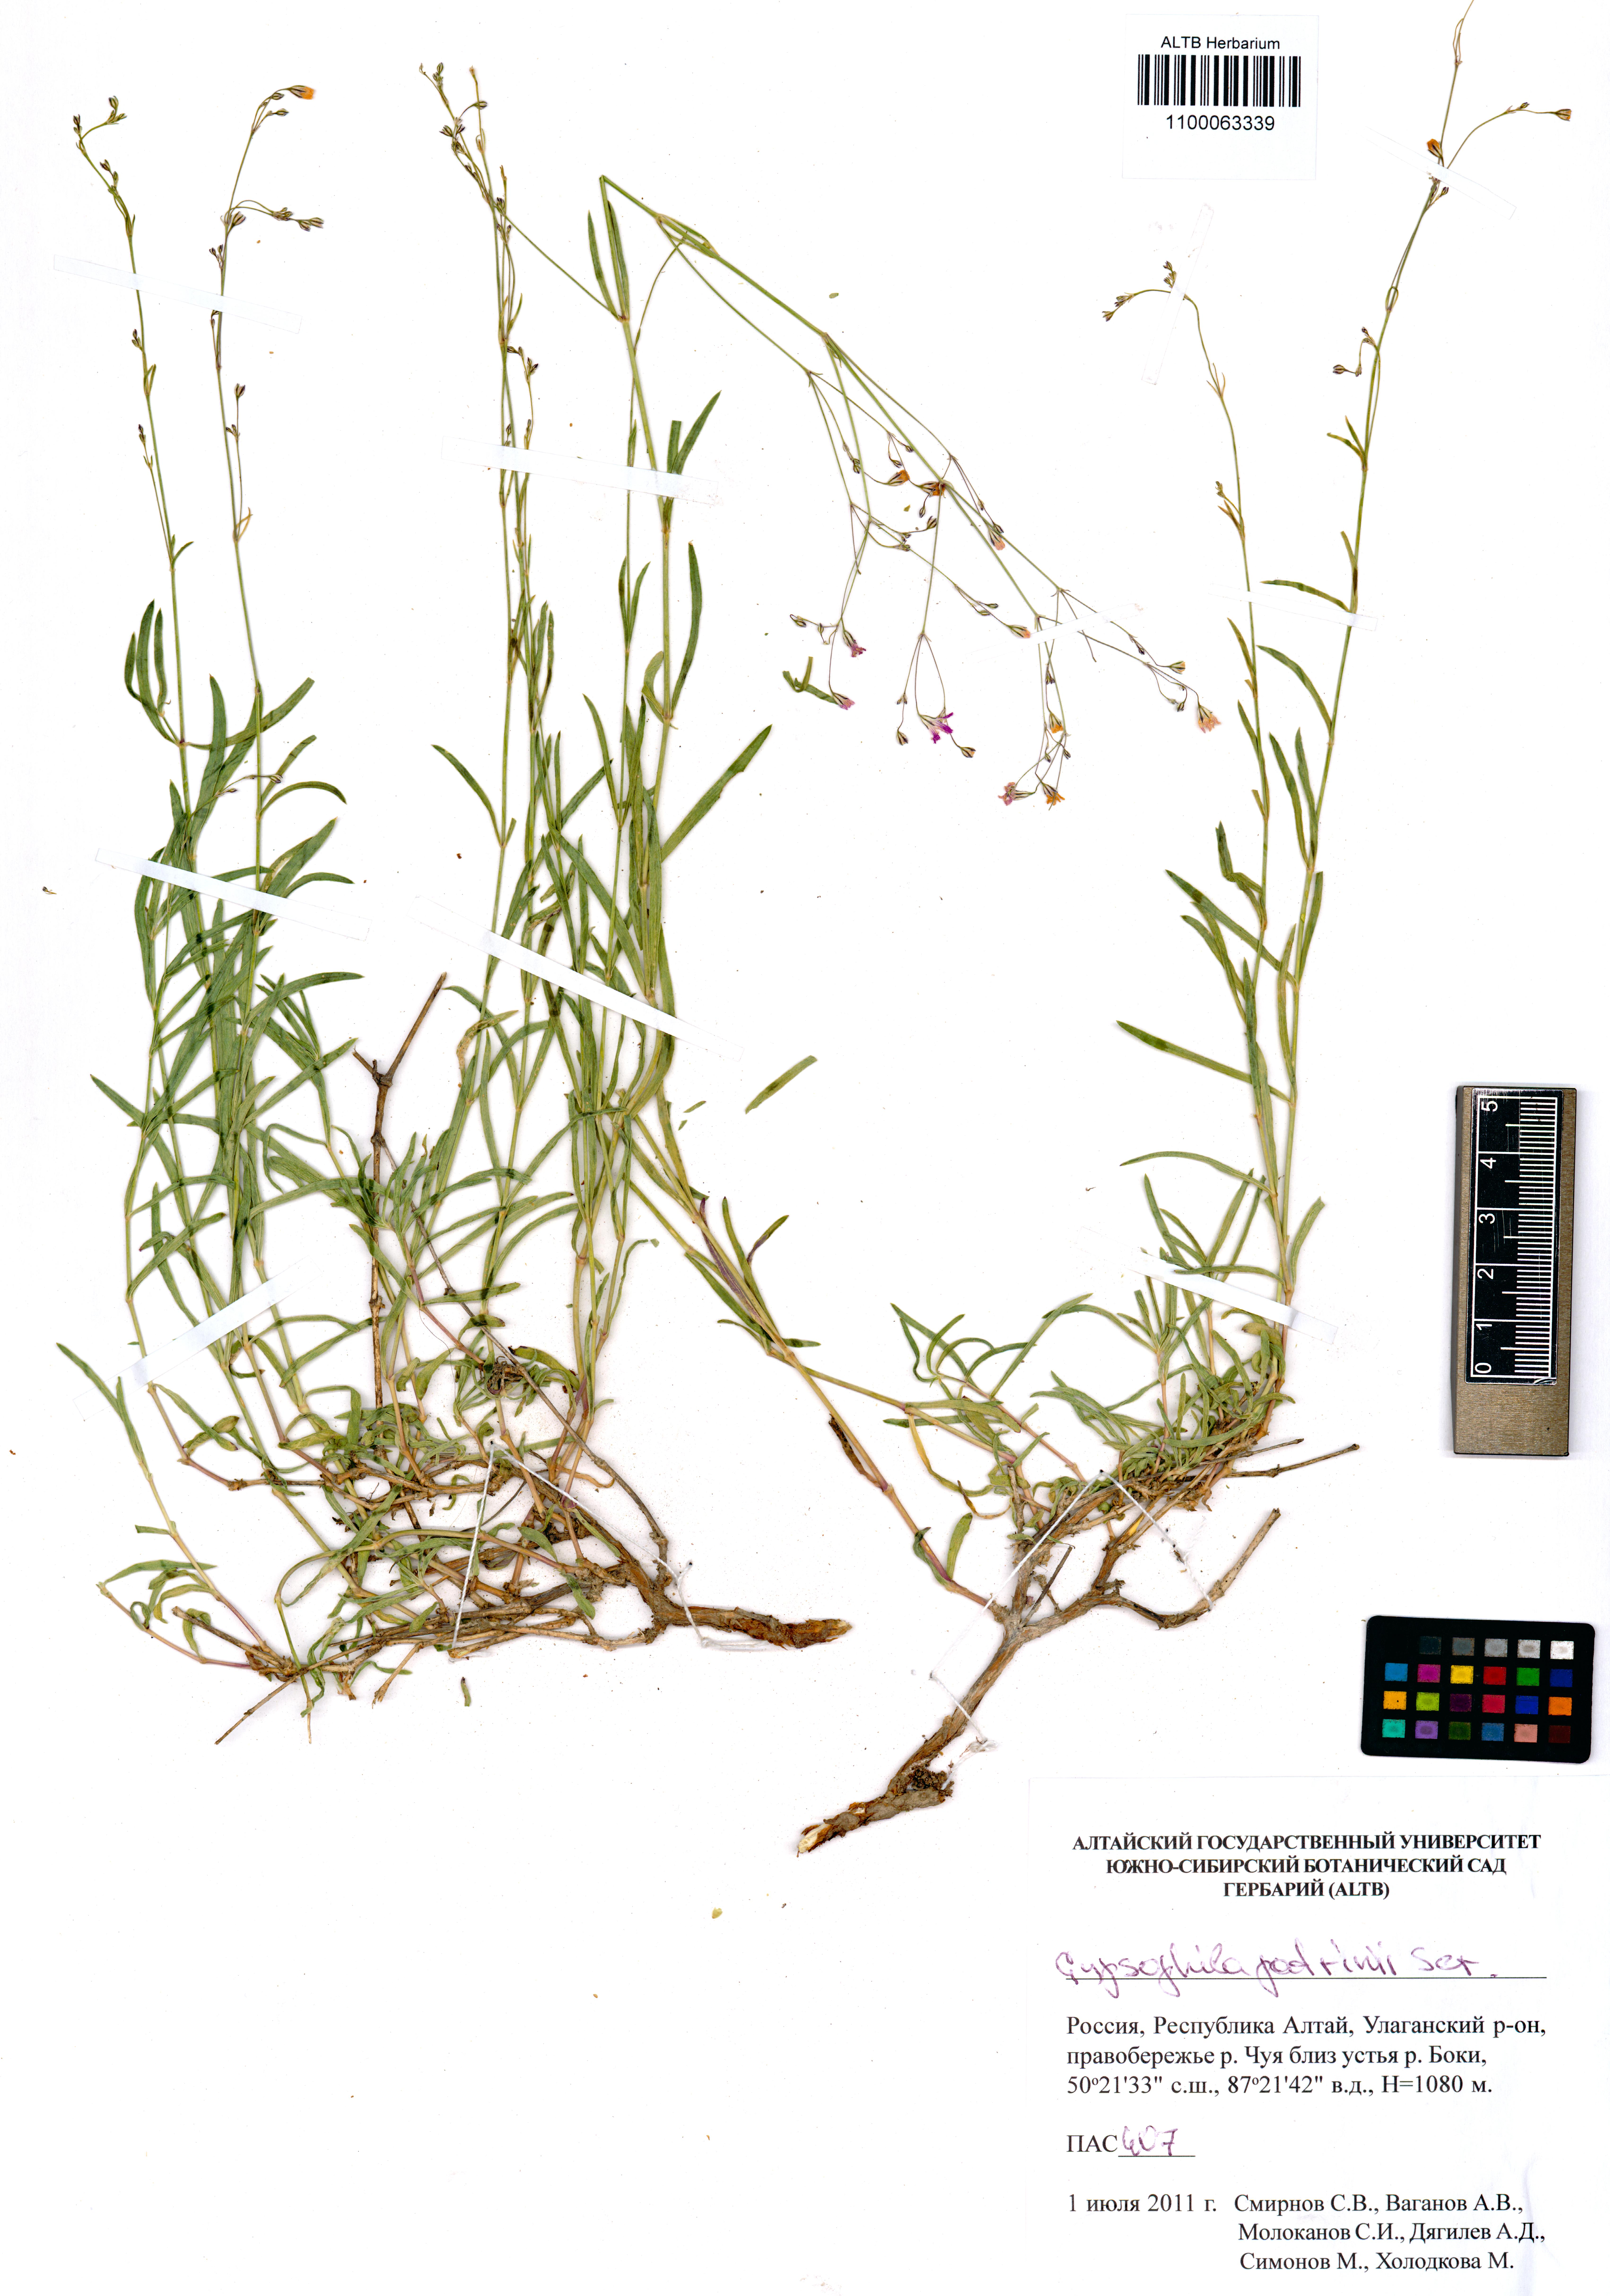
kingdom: Plantae
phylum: Tracheophyta
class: Magnoliopsida
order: Caryophyllales
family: Caryophyllaceae
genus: Gypsophila
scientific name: Gypsophila patrinii
